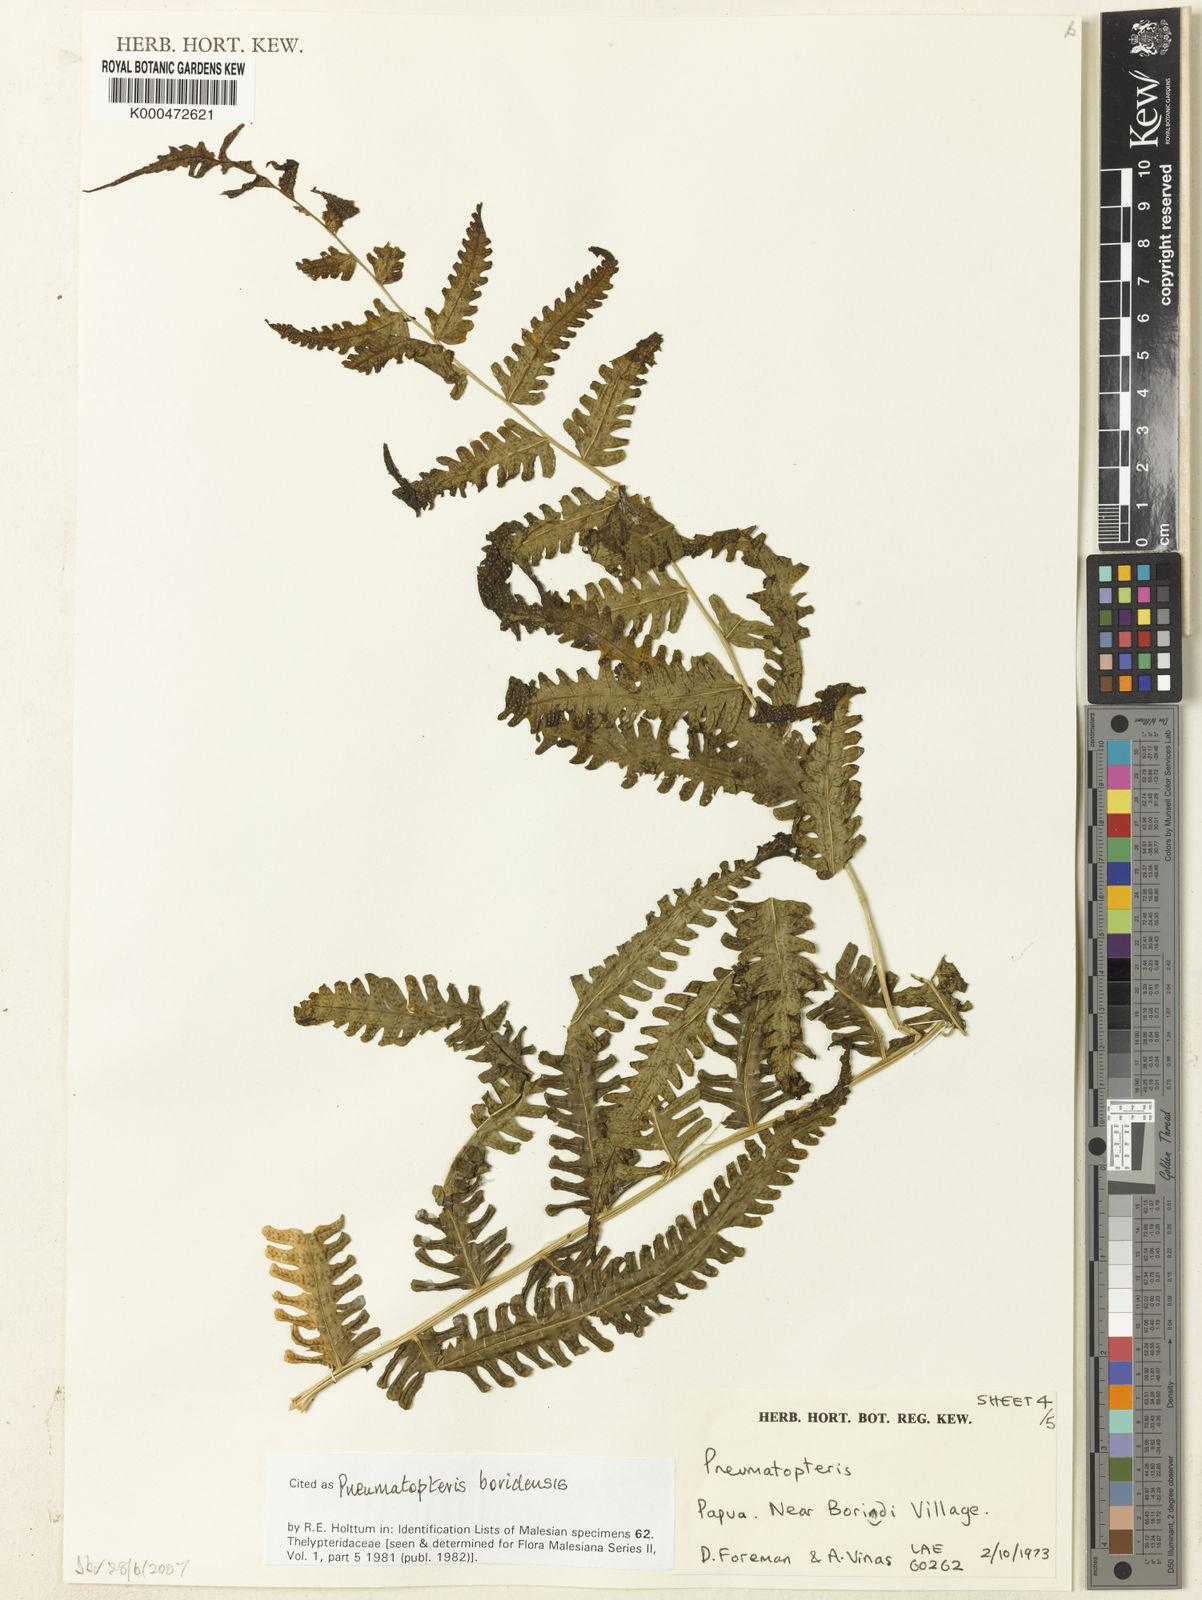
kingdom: Plantae
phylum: Tracheophyta
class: Polypodiopsida
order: Polypodiales
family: Thelypteridaceae
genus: Reholttumia
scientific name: Reholttumia boridensis
